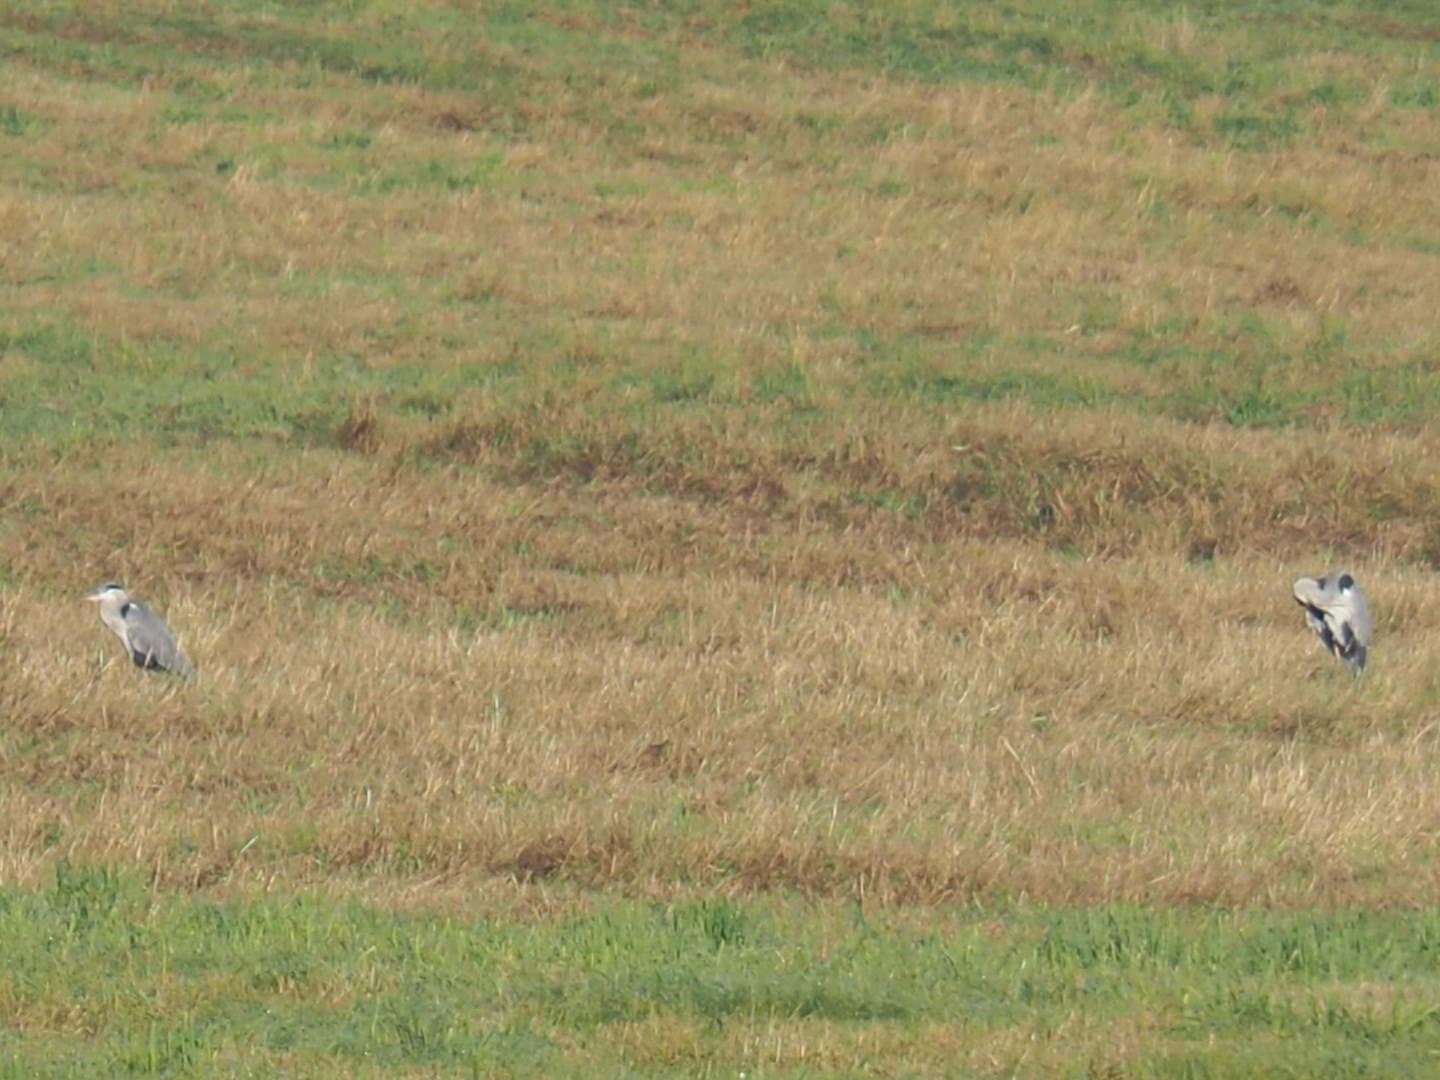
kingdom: Animalia
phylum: Chordata
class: Aves
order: Pelecaniformes
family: Ardeidae
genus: Ardea
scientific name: Ardea cinerea
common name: Fiskehejre
